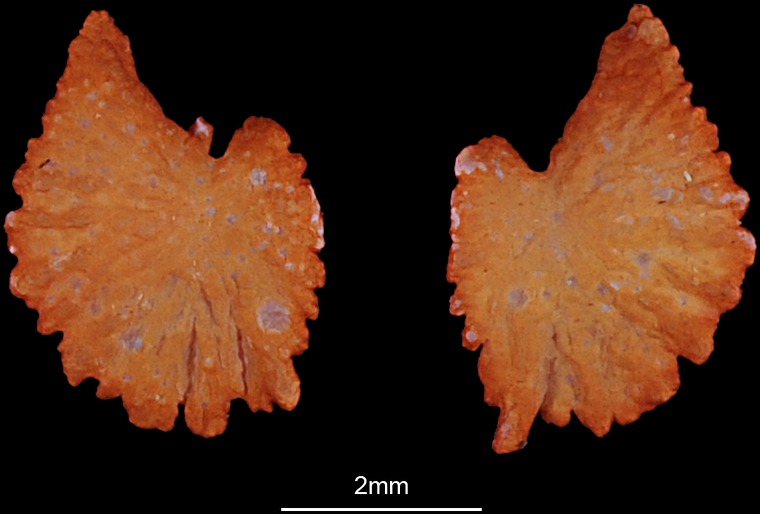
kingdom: Animalia
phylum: Chordata
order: Cypriniformes
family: Cyprinidae
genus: Cyprinus
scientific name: Cyprinus carpio
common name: Common carp
